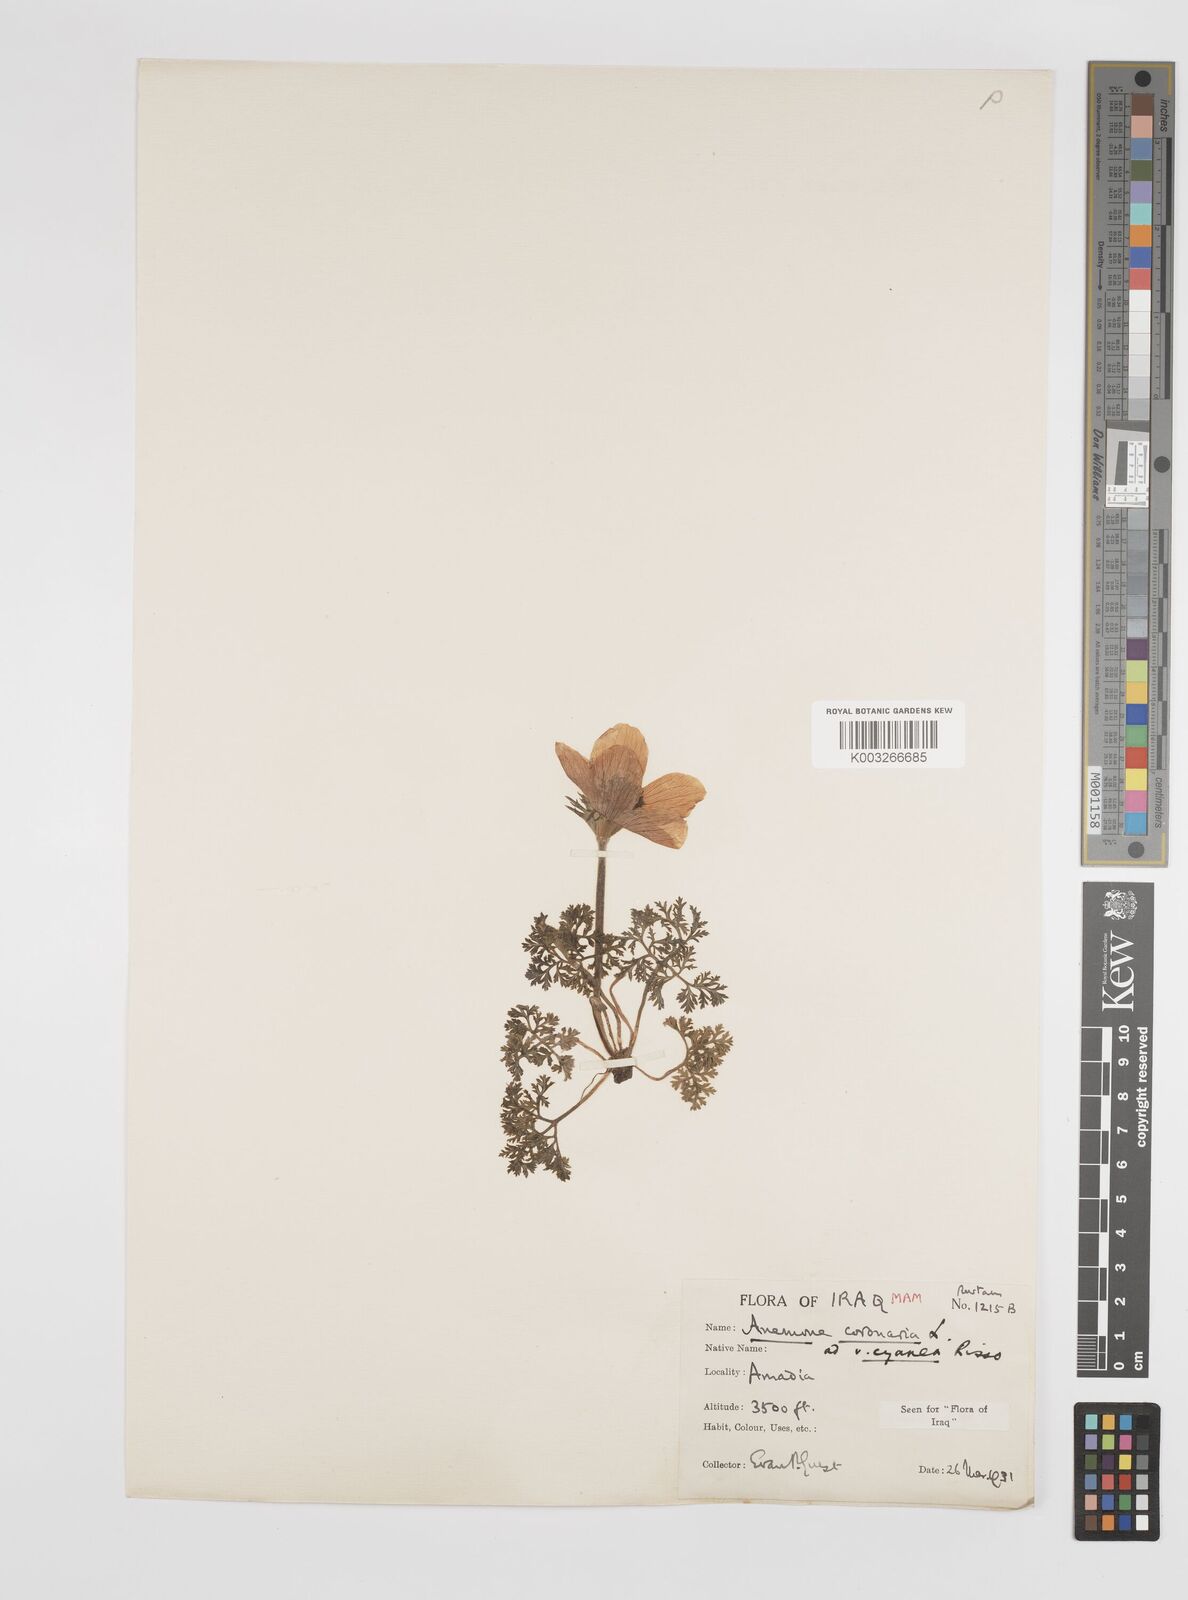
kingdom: Plantae
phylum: Tracheophyta
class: Magnoliopsida
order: Ranunculales
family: Ranunculaceae
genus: Anemone
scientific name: Anemone coronaria
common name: Poppy anemone
